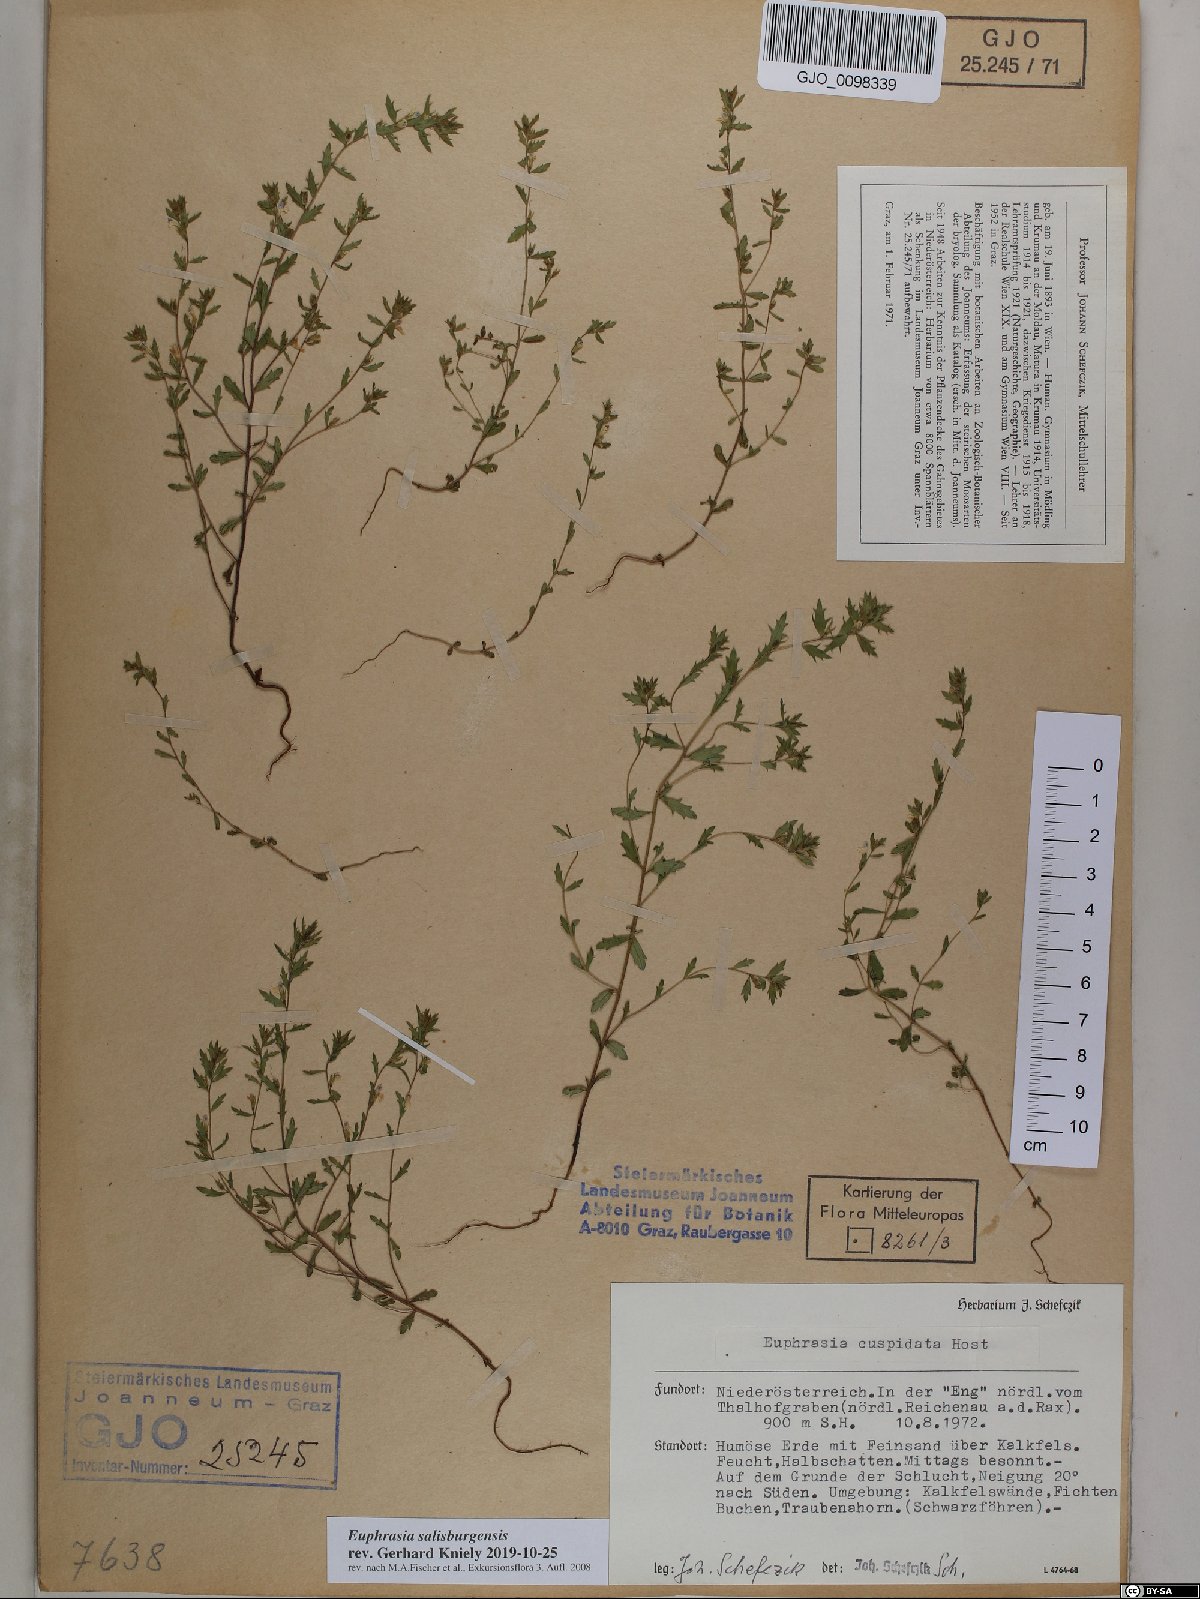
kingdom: Plantae
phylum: Tracheophyta
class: Magnoliopsida
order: Lamiales
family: Orobanchaceae
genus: Euphrasia
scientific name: Euphrasia salisburgensis
